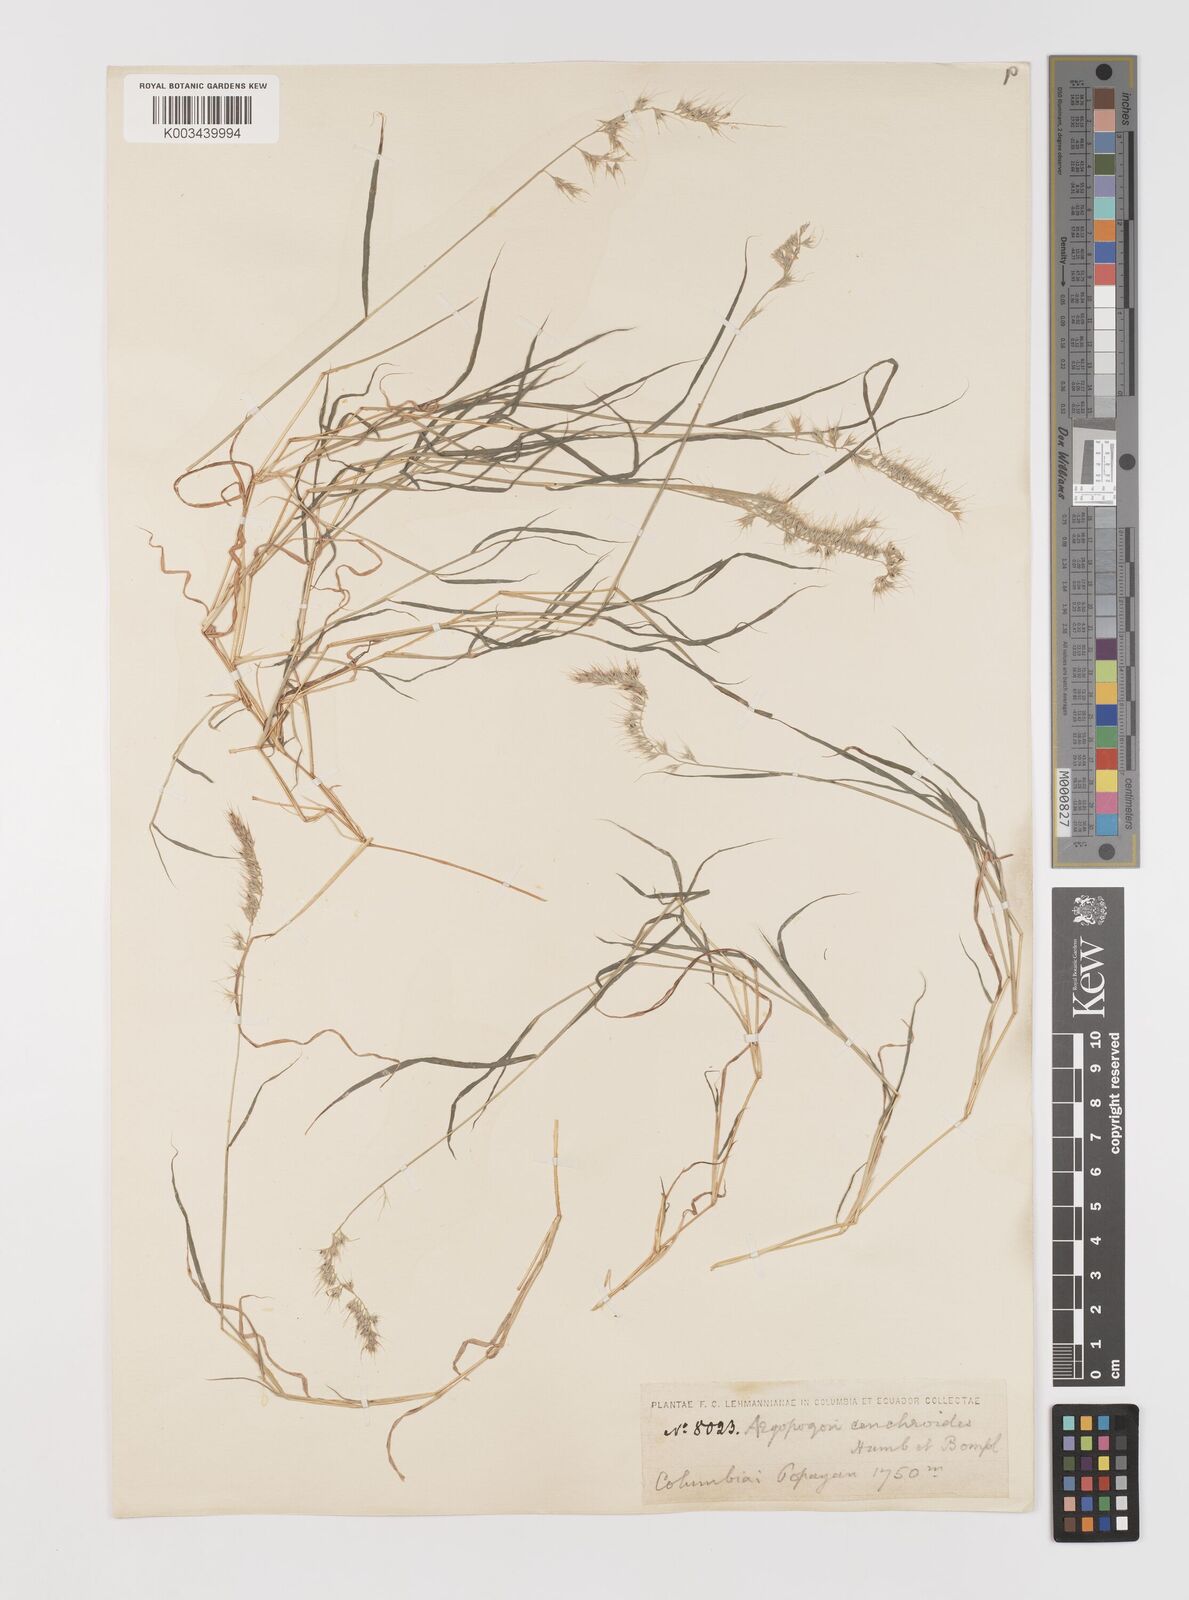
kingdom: Plantae
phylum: Tracheophyta
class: Liliopsida
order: Poales
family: Poaceae
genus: Muhlenbergia
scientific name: Muhlenbergia cenchroides
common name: Relaxgrass
